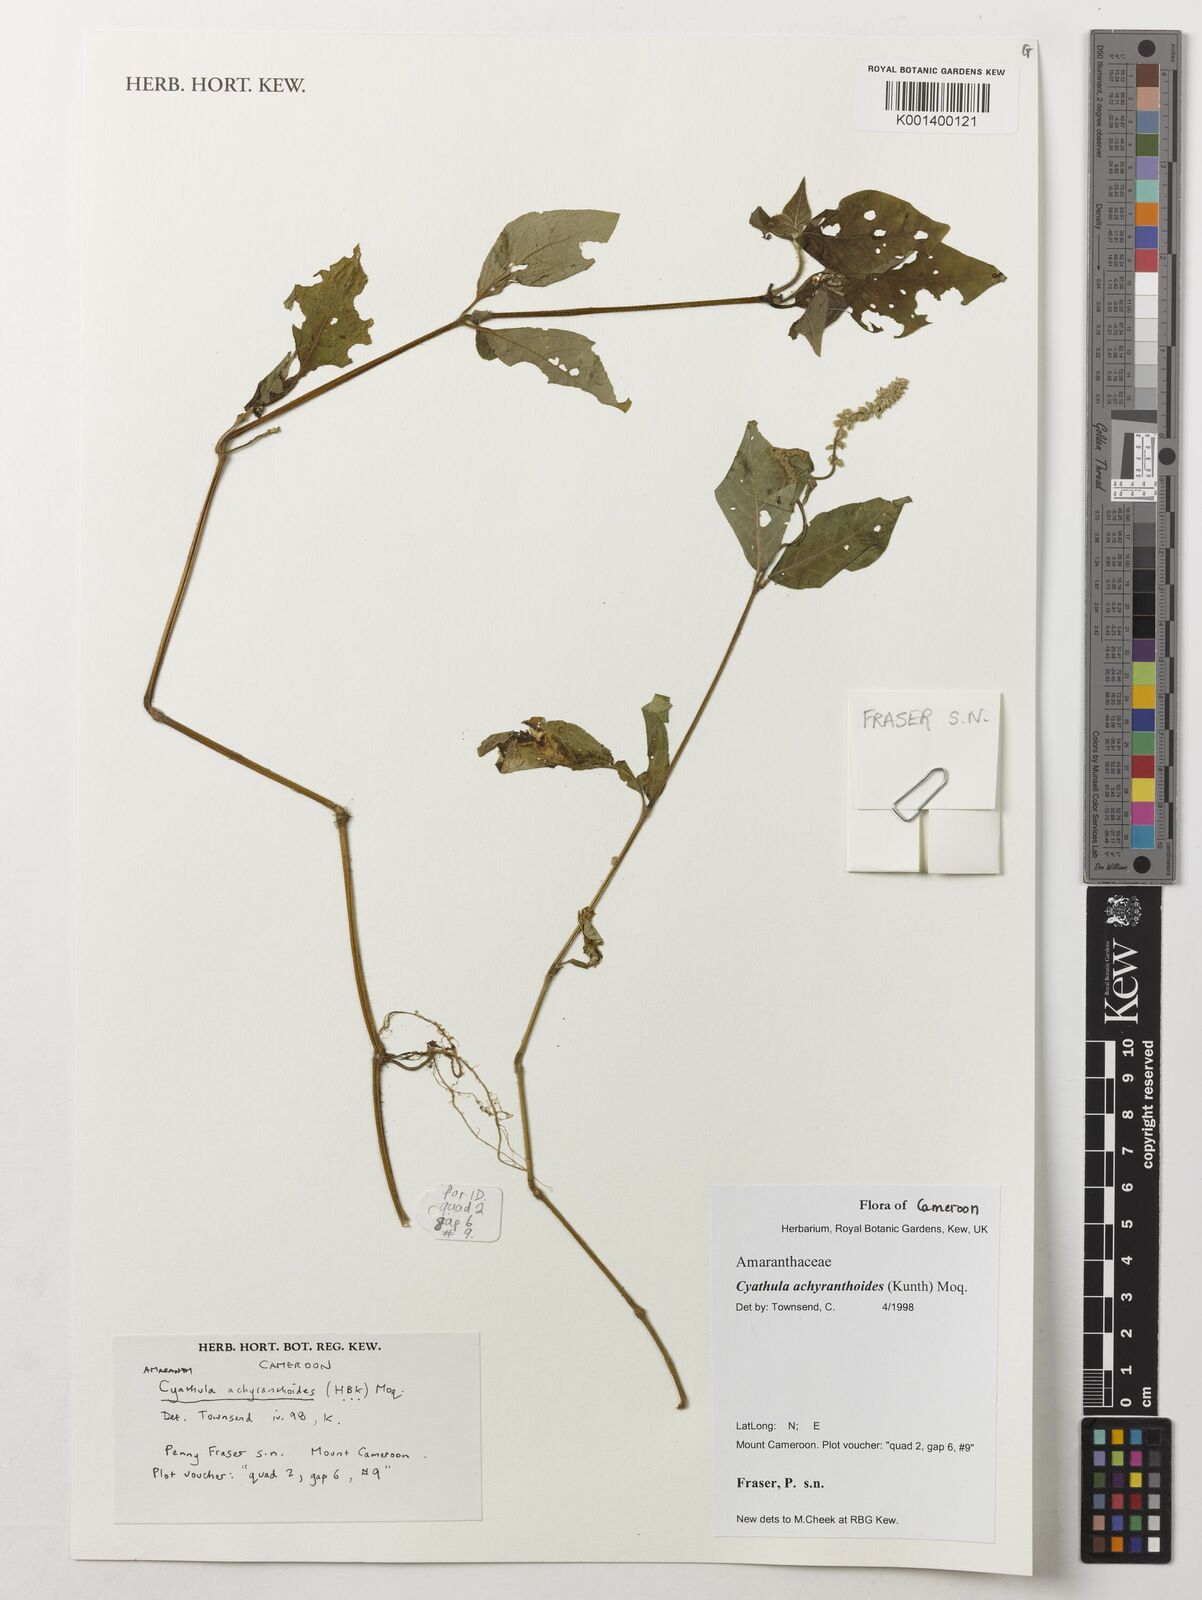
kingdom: Plantae
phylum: Tracheophyta
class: Magnoliopsida
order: Caryophyllales
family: Amaranthaceae
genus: Cyathula
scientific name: Cyathula achyranthoides
